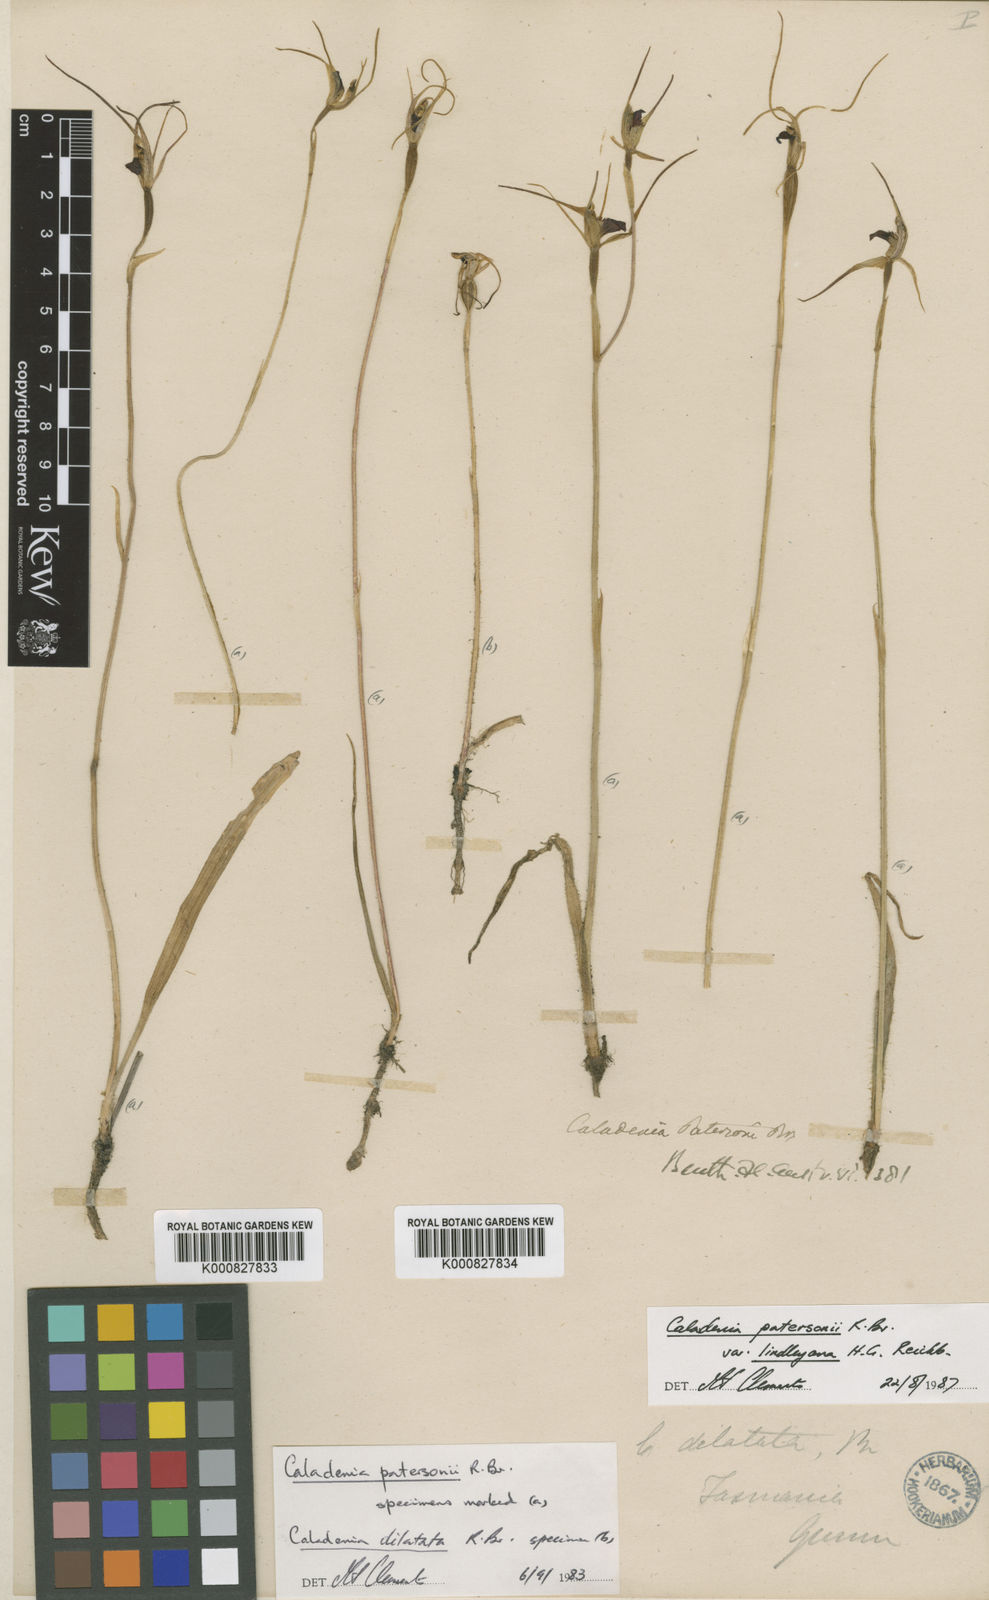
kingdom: Plantae
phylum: Tracheophyta
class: Liliopsida
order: Asparagales
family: Orchidaceae
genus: Caladenia
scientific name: Caladenia lindleyana
